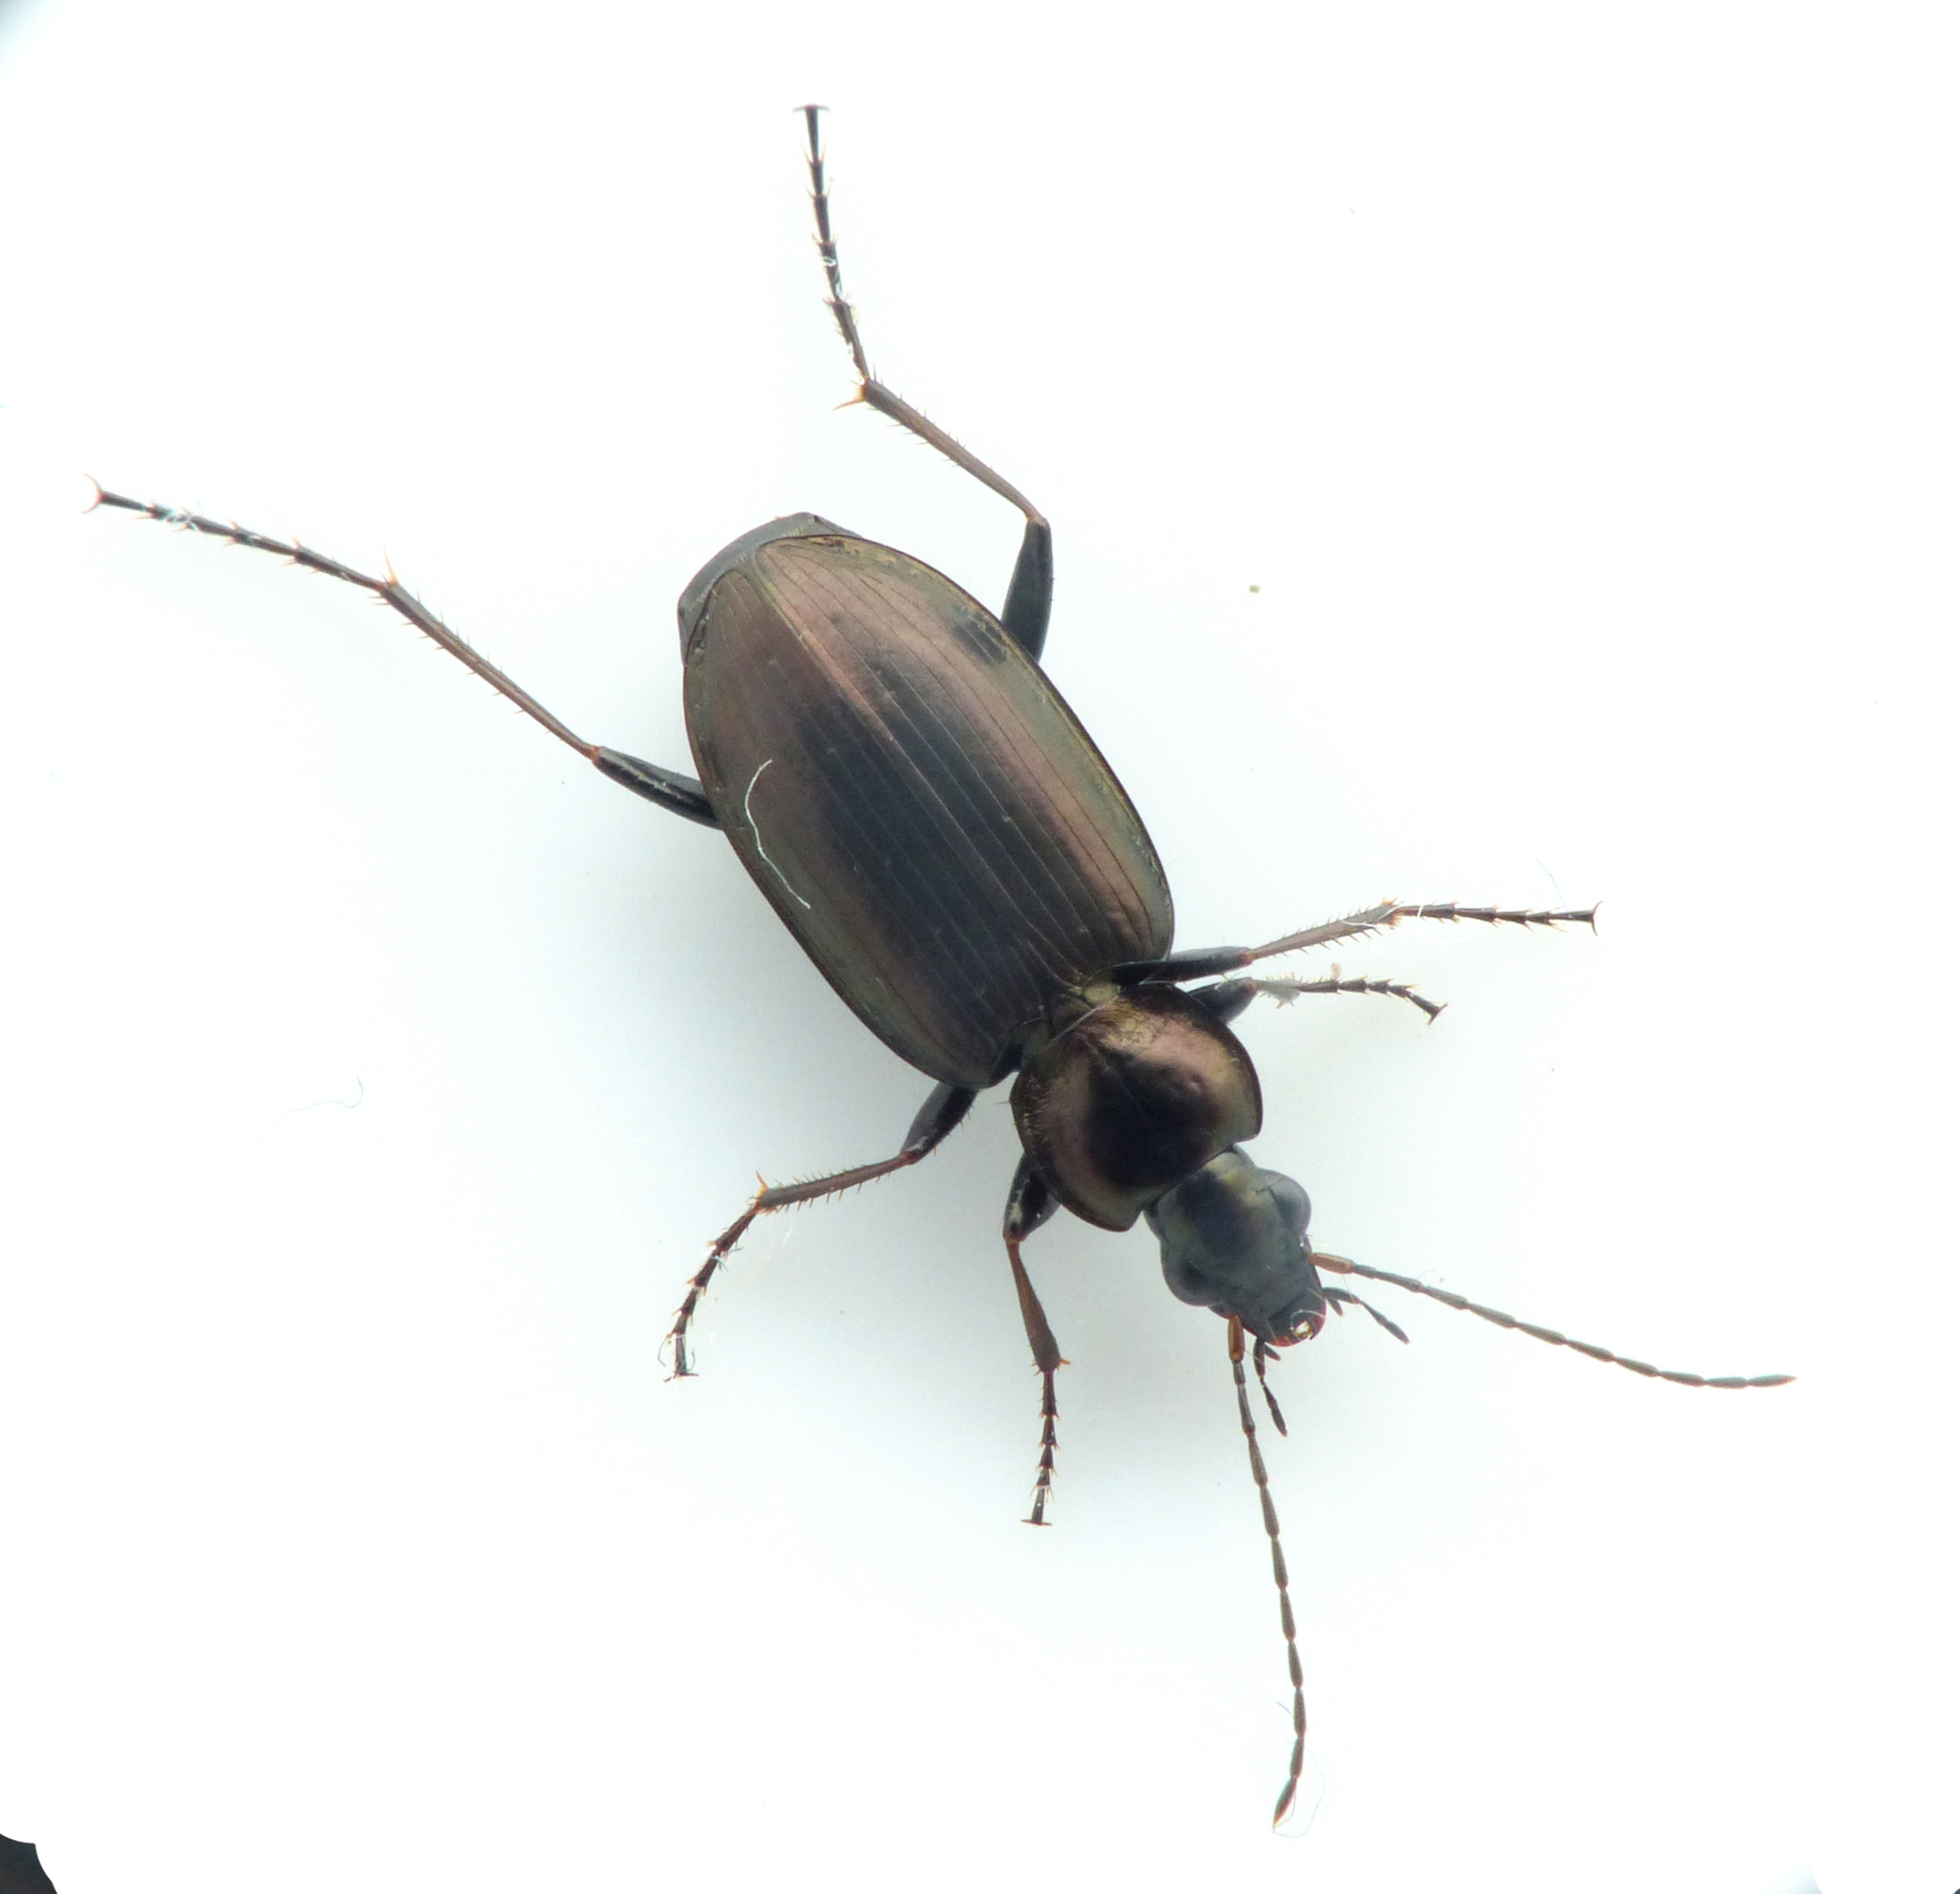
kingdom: Animalia
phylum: Arthropoda
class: Insecta
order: Coleoptera
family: Carabidae
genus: Agonum
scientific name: Agonum gracilipes
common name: Bronzekvikløber
